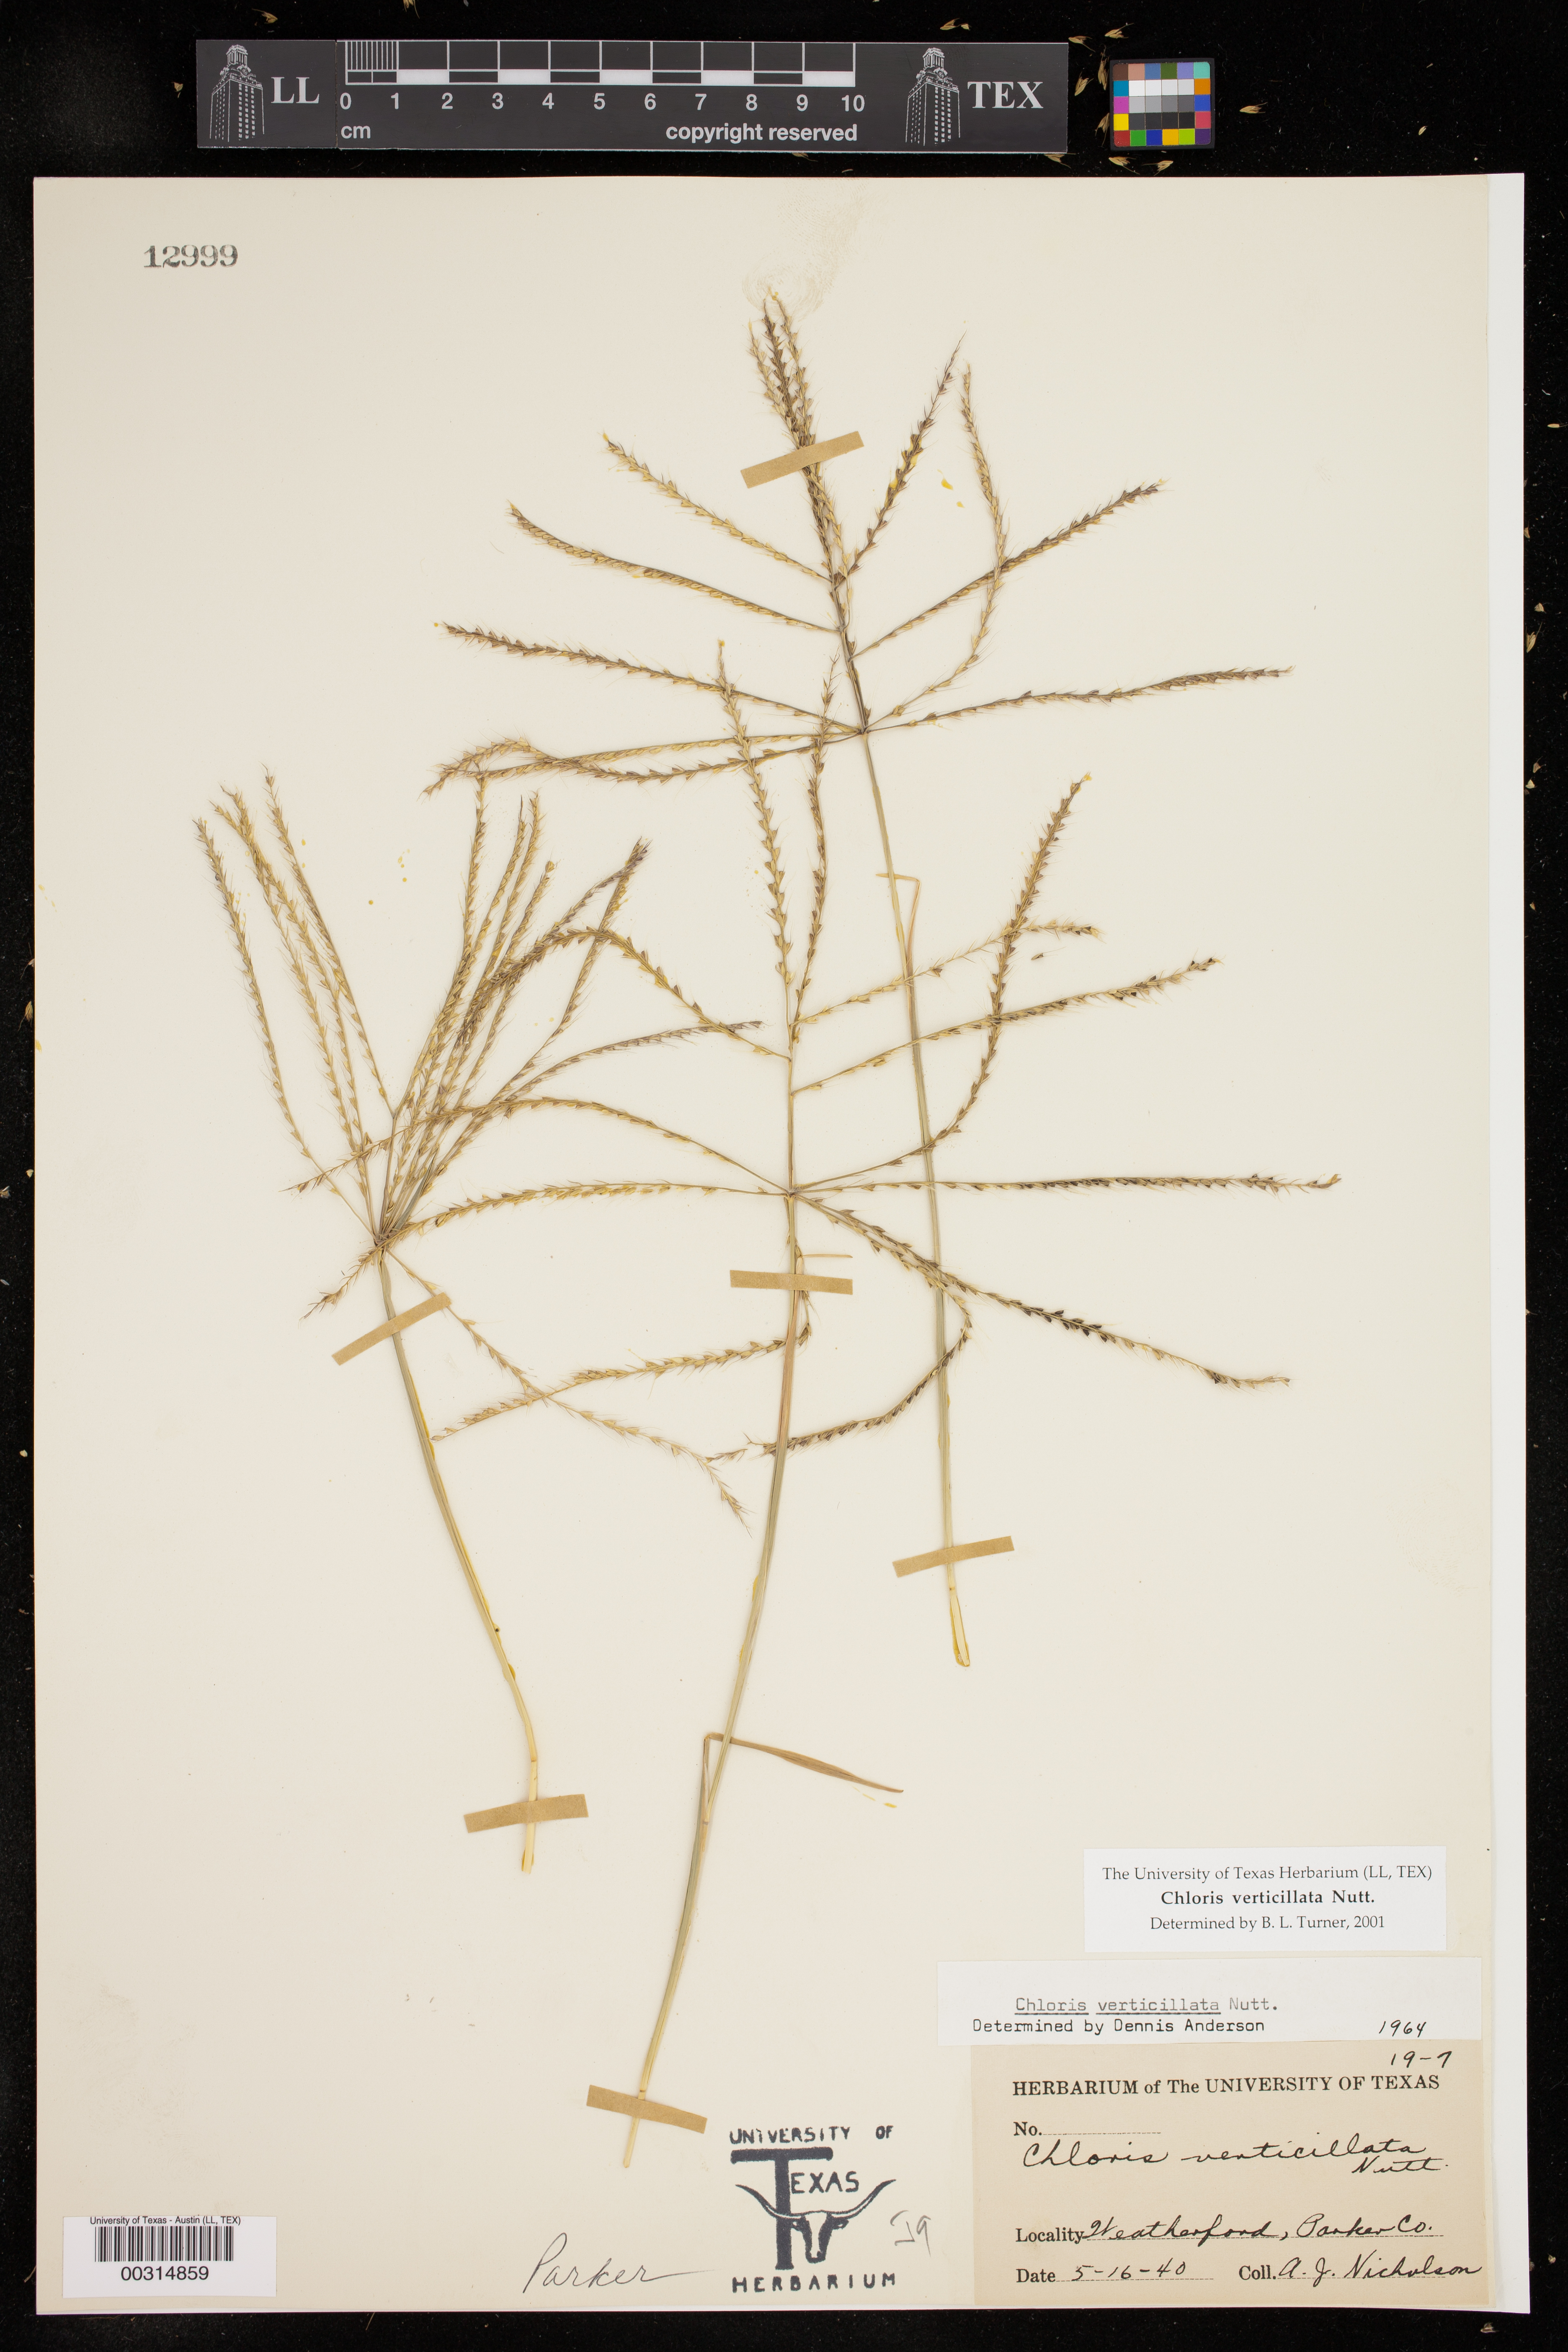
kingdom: Plantae
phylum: Tracheophyta
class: Liliopsida
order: Poales
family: Poaceae
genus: Chloris
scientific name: Chloris verticillata
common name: Tumble windmill grass
